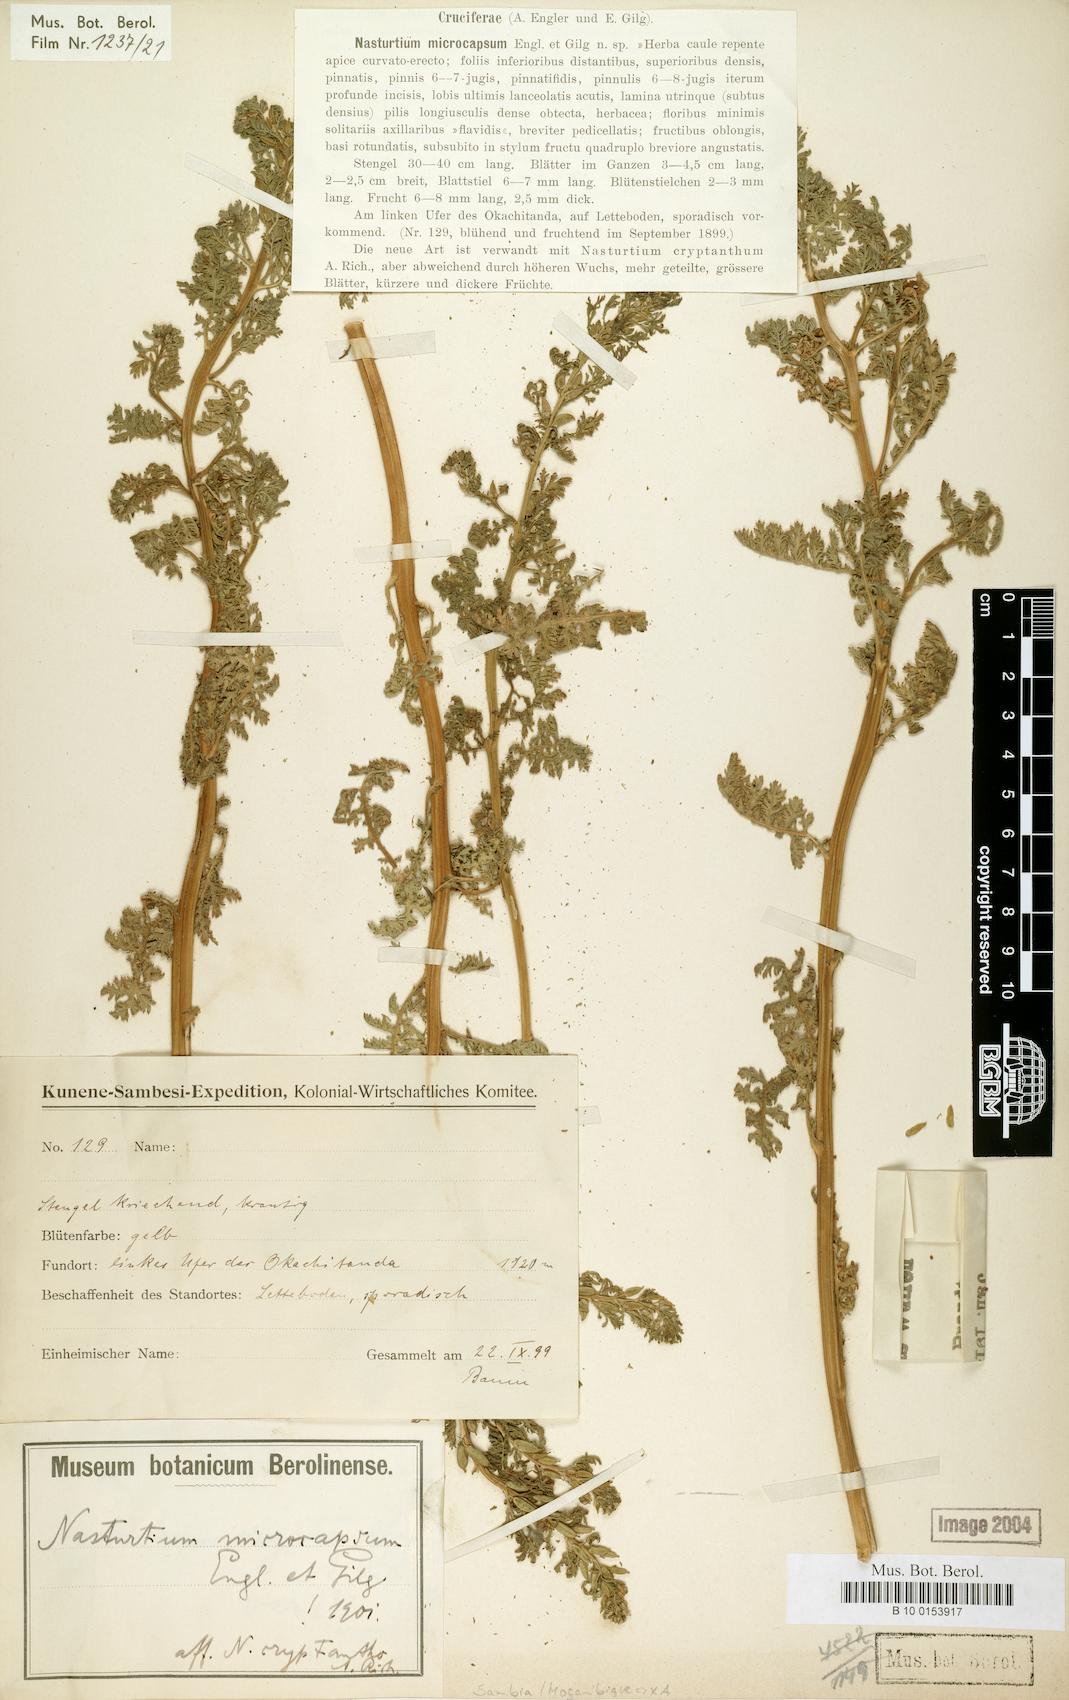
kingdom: Plantae
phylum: Tracheophyta
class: Magnoliopsida
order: Brassicales
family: Brassicaceae
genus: Rorippa
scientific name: Rorippa cryptantha
